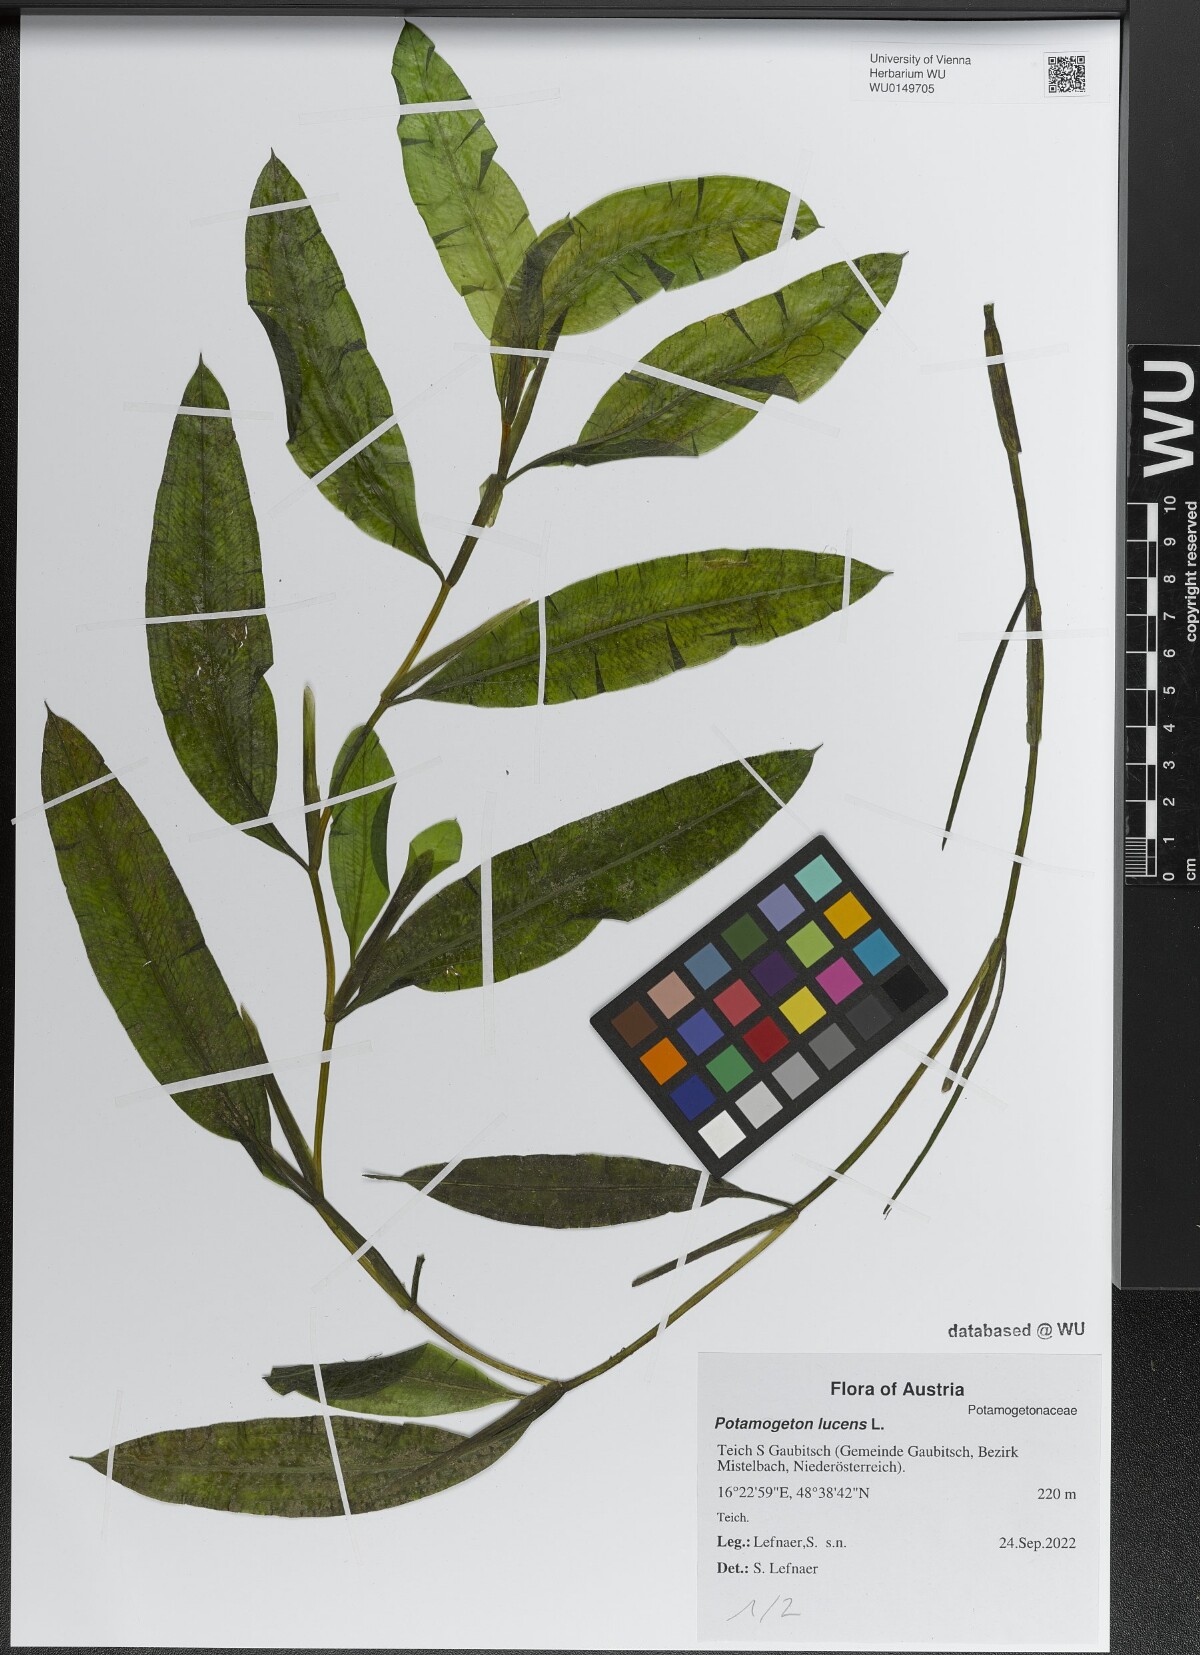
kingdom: Plantae
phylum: Tracheophyta
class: Liliopsida
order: Alismatales
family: Potamogetonaceae
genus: Potamogeton
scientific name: Potamogeton lucens
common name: Shining pondweed
